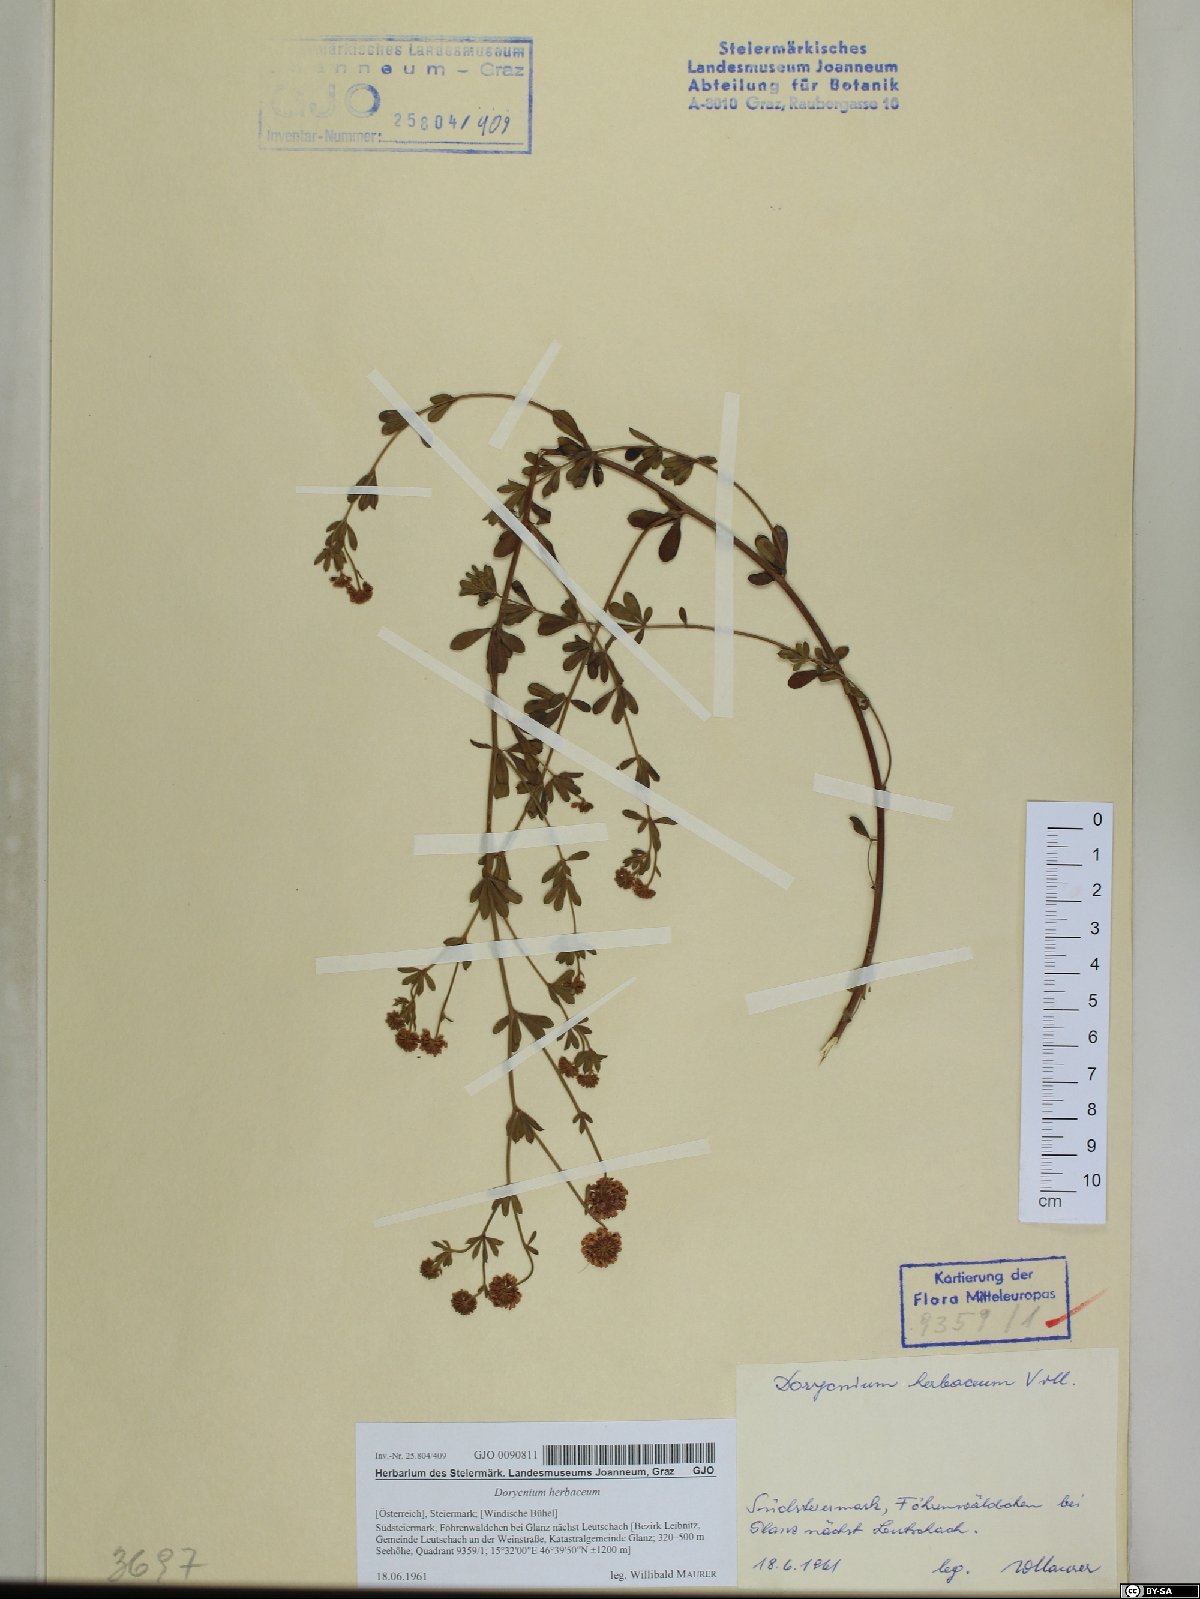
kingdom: Plantae
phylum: Tracheophyta
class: Magnoliopsida
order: Fabales
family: Fabaceae
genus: Lotus
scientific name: Lotus herbaceus
